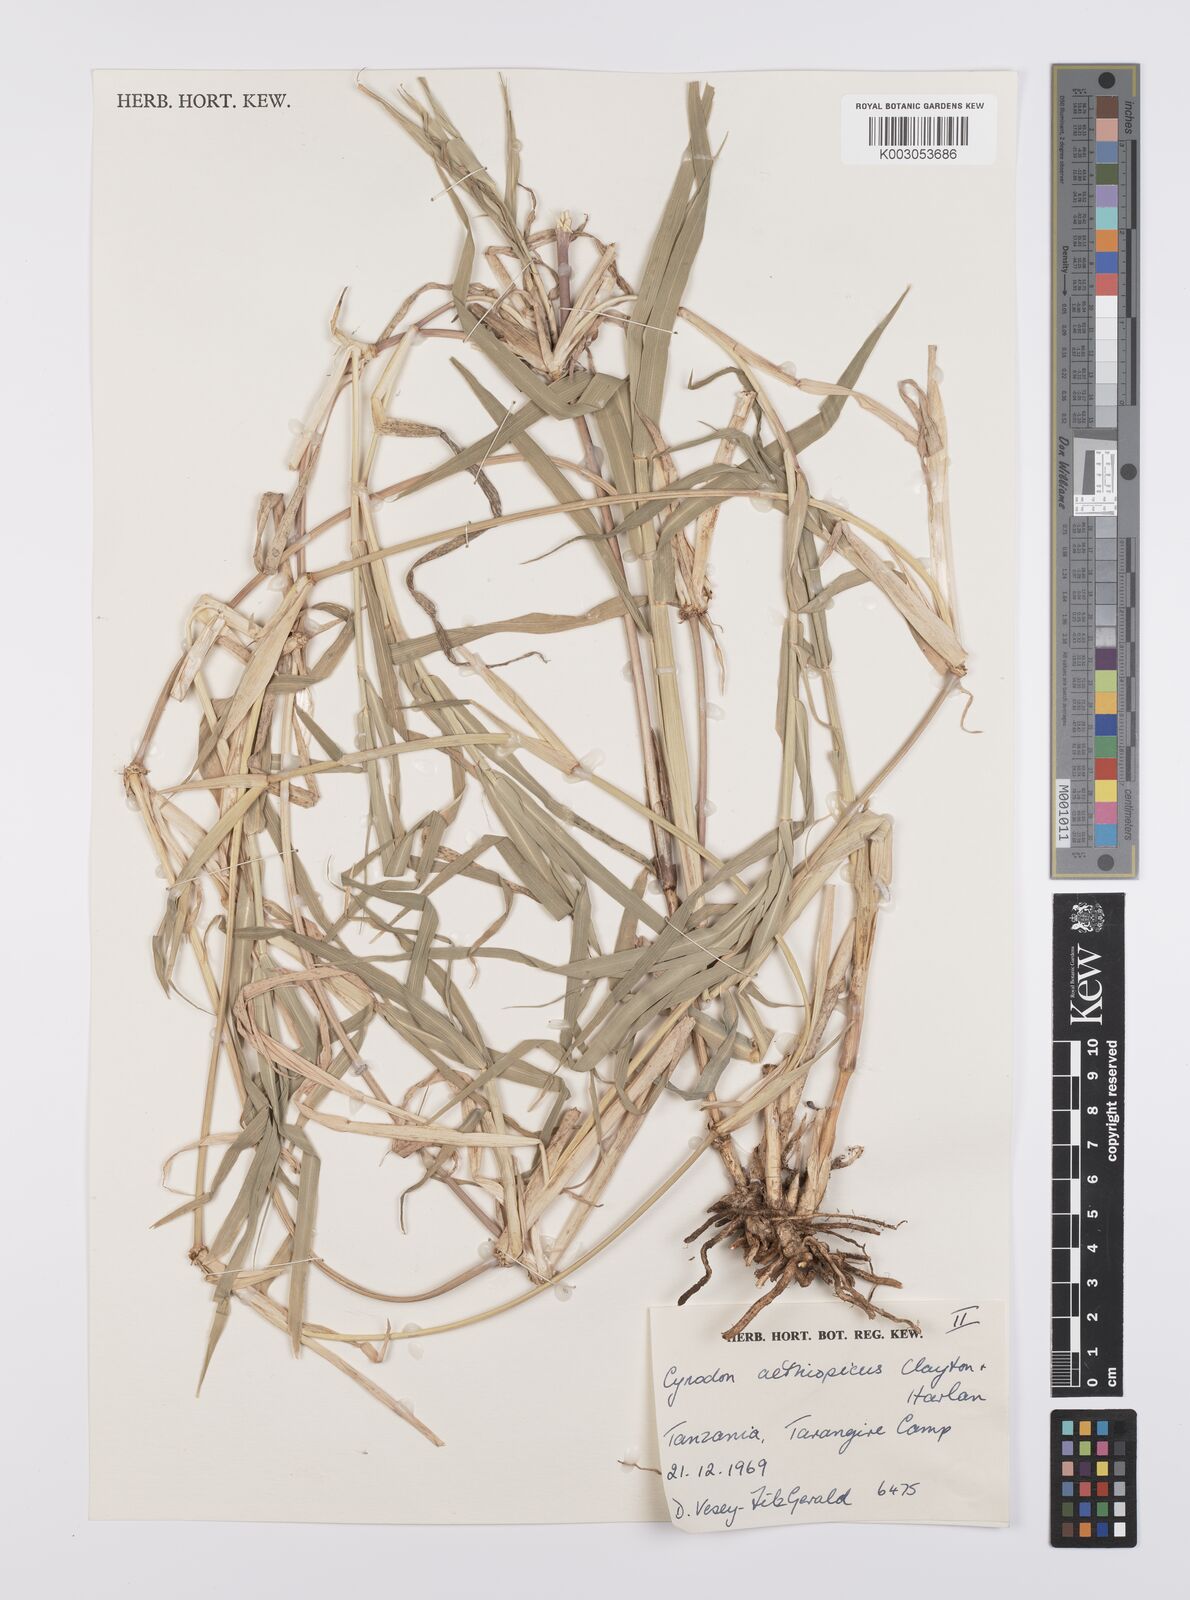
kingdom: Plantae
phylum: Tracheophyta
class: Liliopsida
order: Poales
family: Poaceae
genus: Cynodon
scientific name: Cynodon aethiopicus
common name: Ethiopian dogstooth grass
